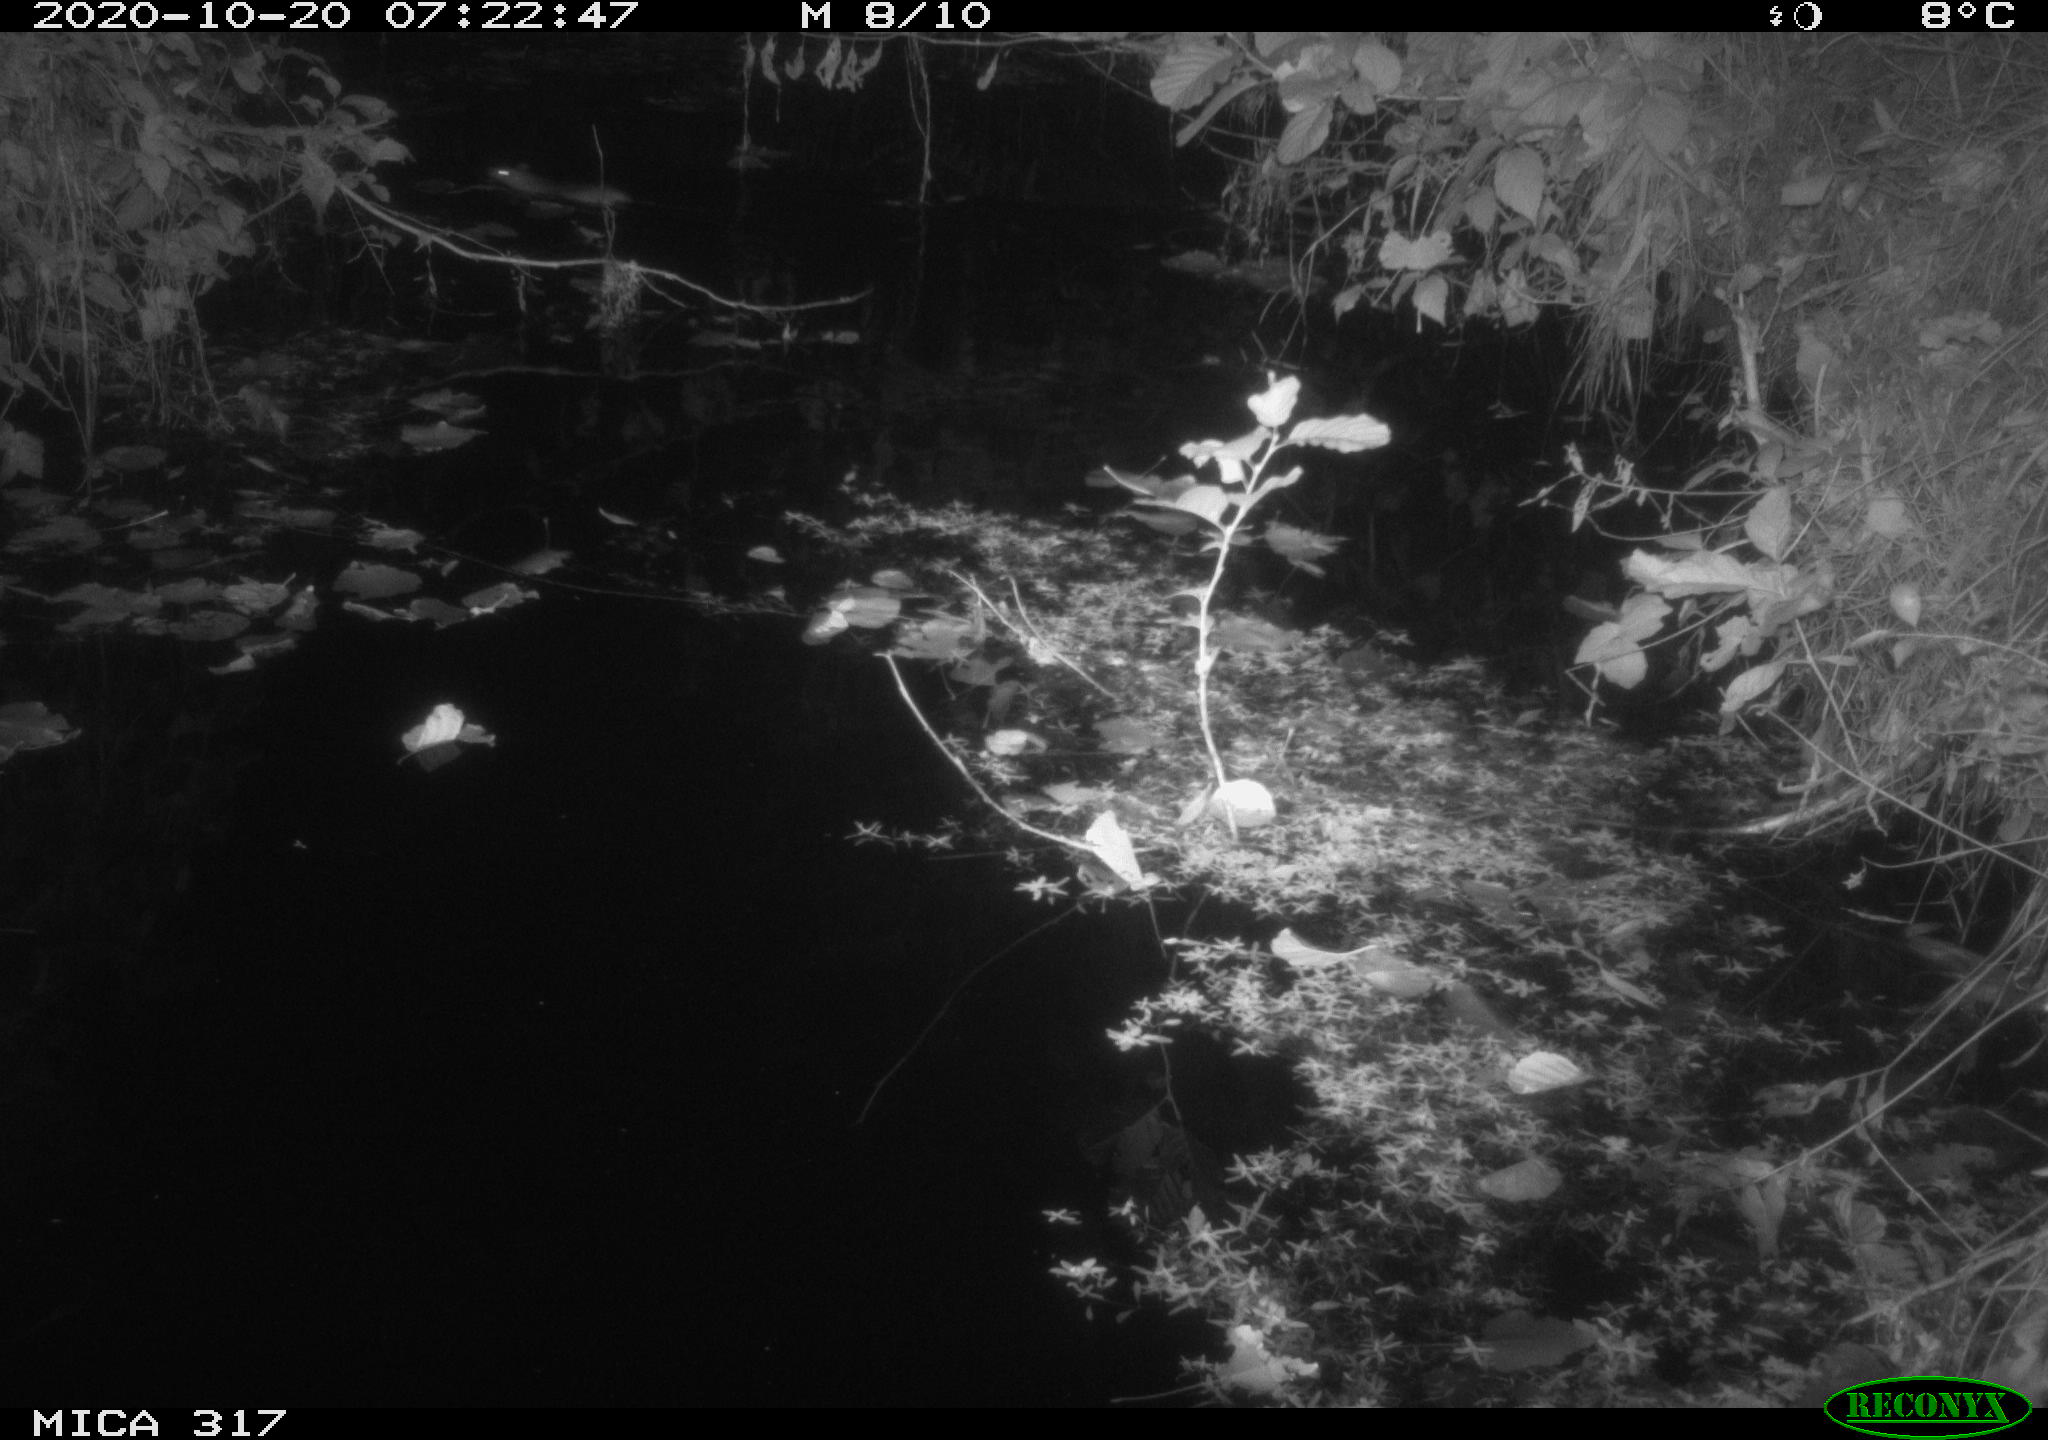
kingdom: Animalia
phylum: Chordata
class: Mammalia
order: Rodentia
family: Muridae
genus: Rattus
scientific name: Rattus norvegicus
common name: Brown rat
